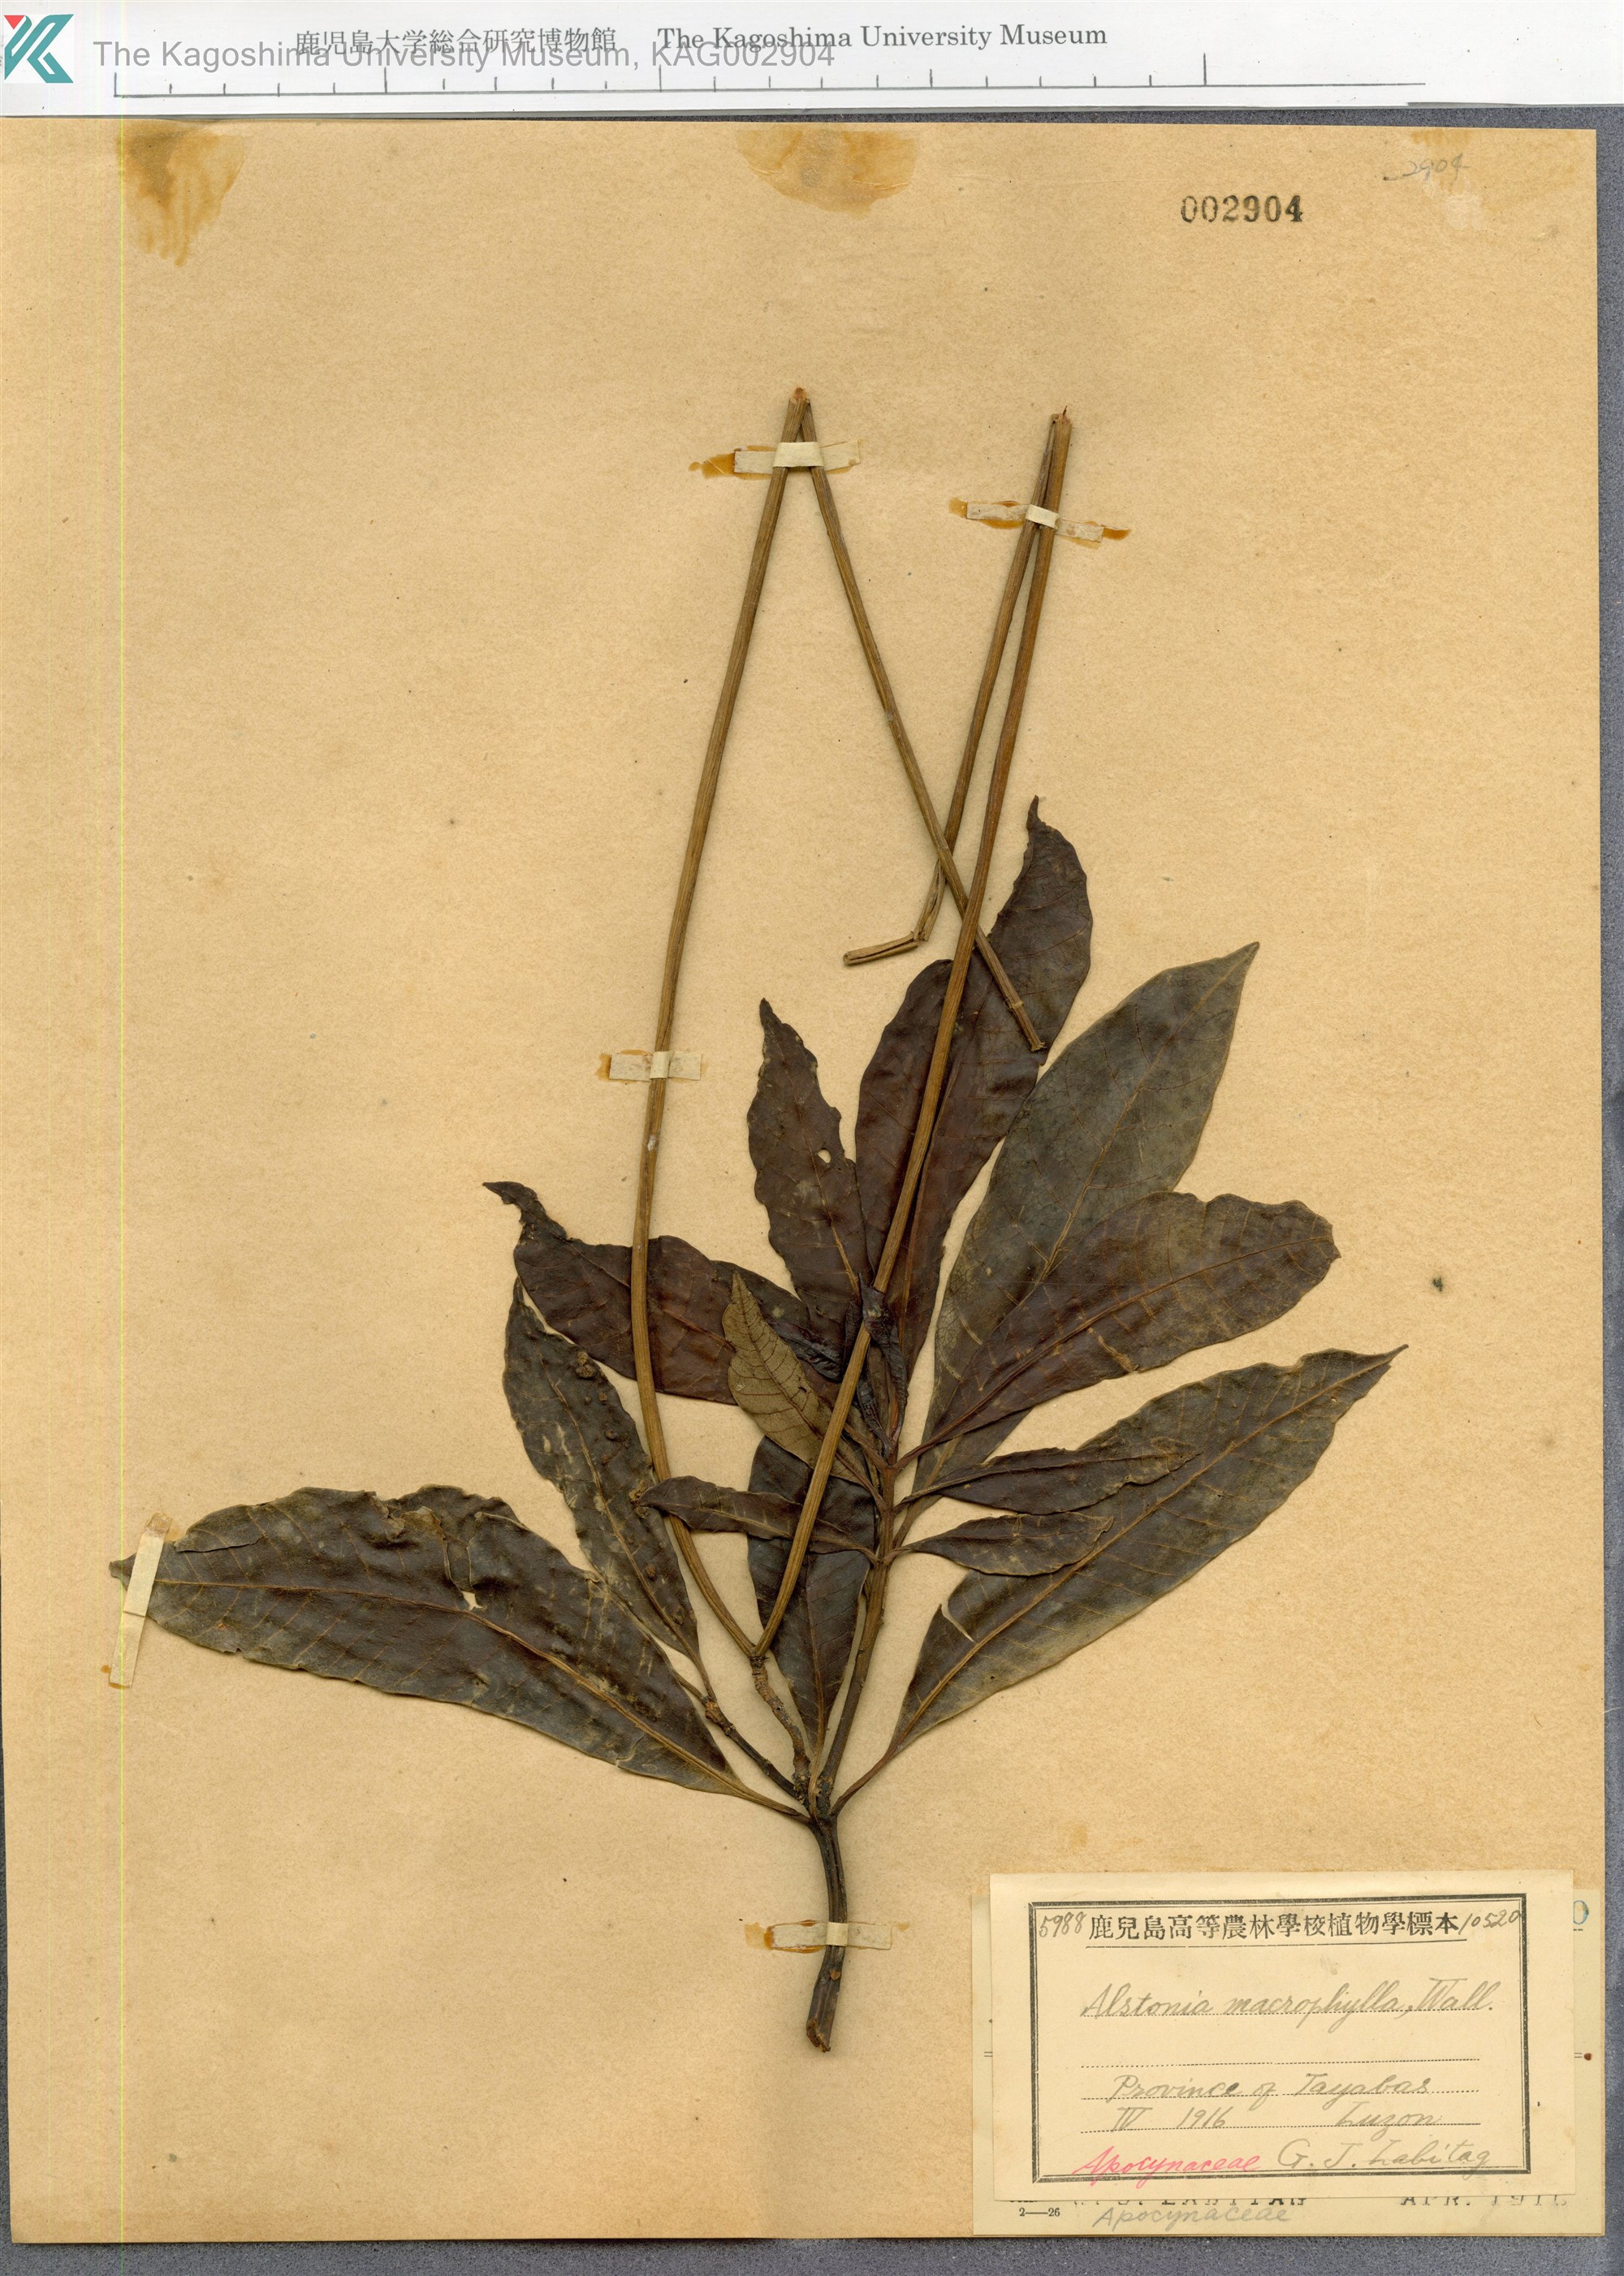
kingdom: Plantae
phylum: Tracheophyta
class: Magnoliopsida
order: Gentianales
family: Apocynaceae
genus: Alstonia
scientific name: Alstonia macrophylla
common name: Deviltree
